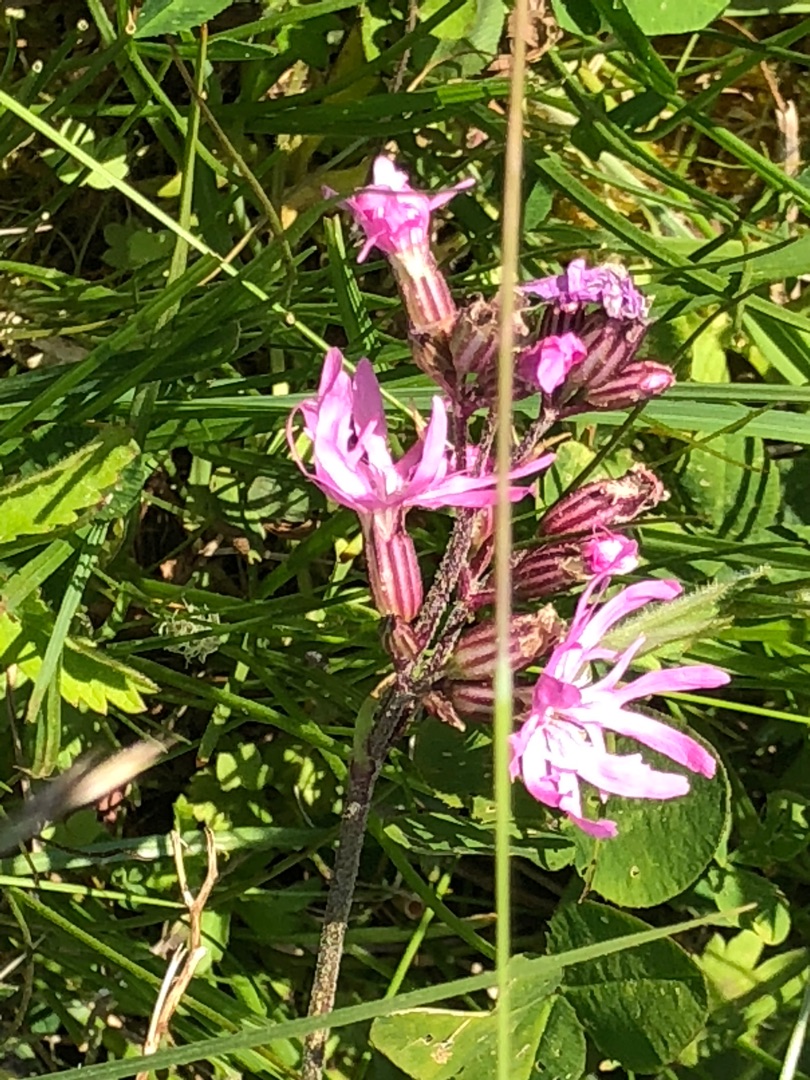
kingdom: Plantae
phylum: Tracheophyta
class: Magnoliopsida
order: Caryophyllales
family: Caryophyllaceae
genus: Silene
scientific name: Silene flos-cuculi
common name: Trævlekrone
